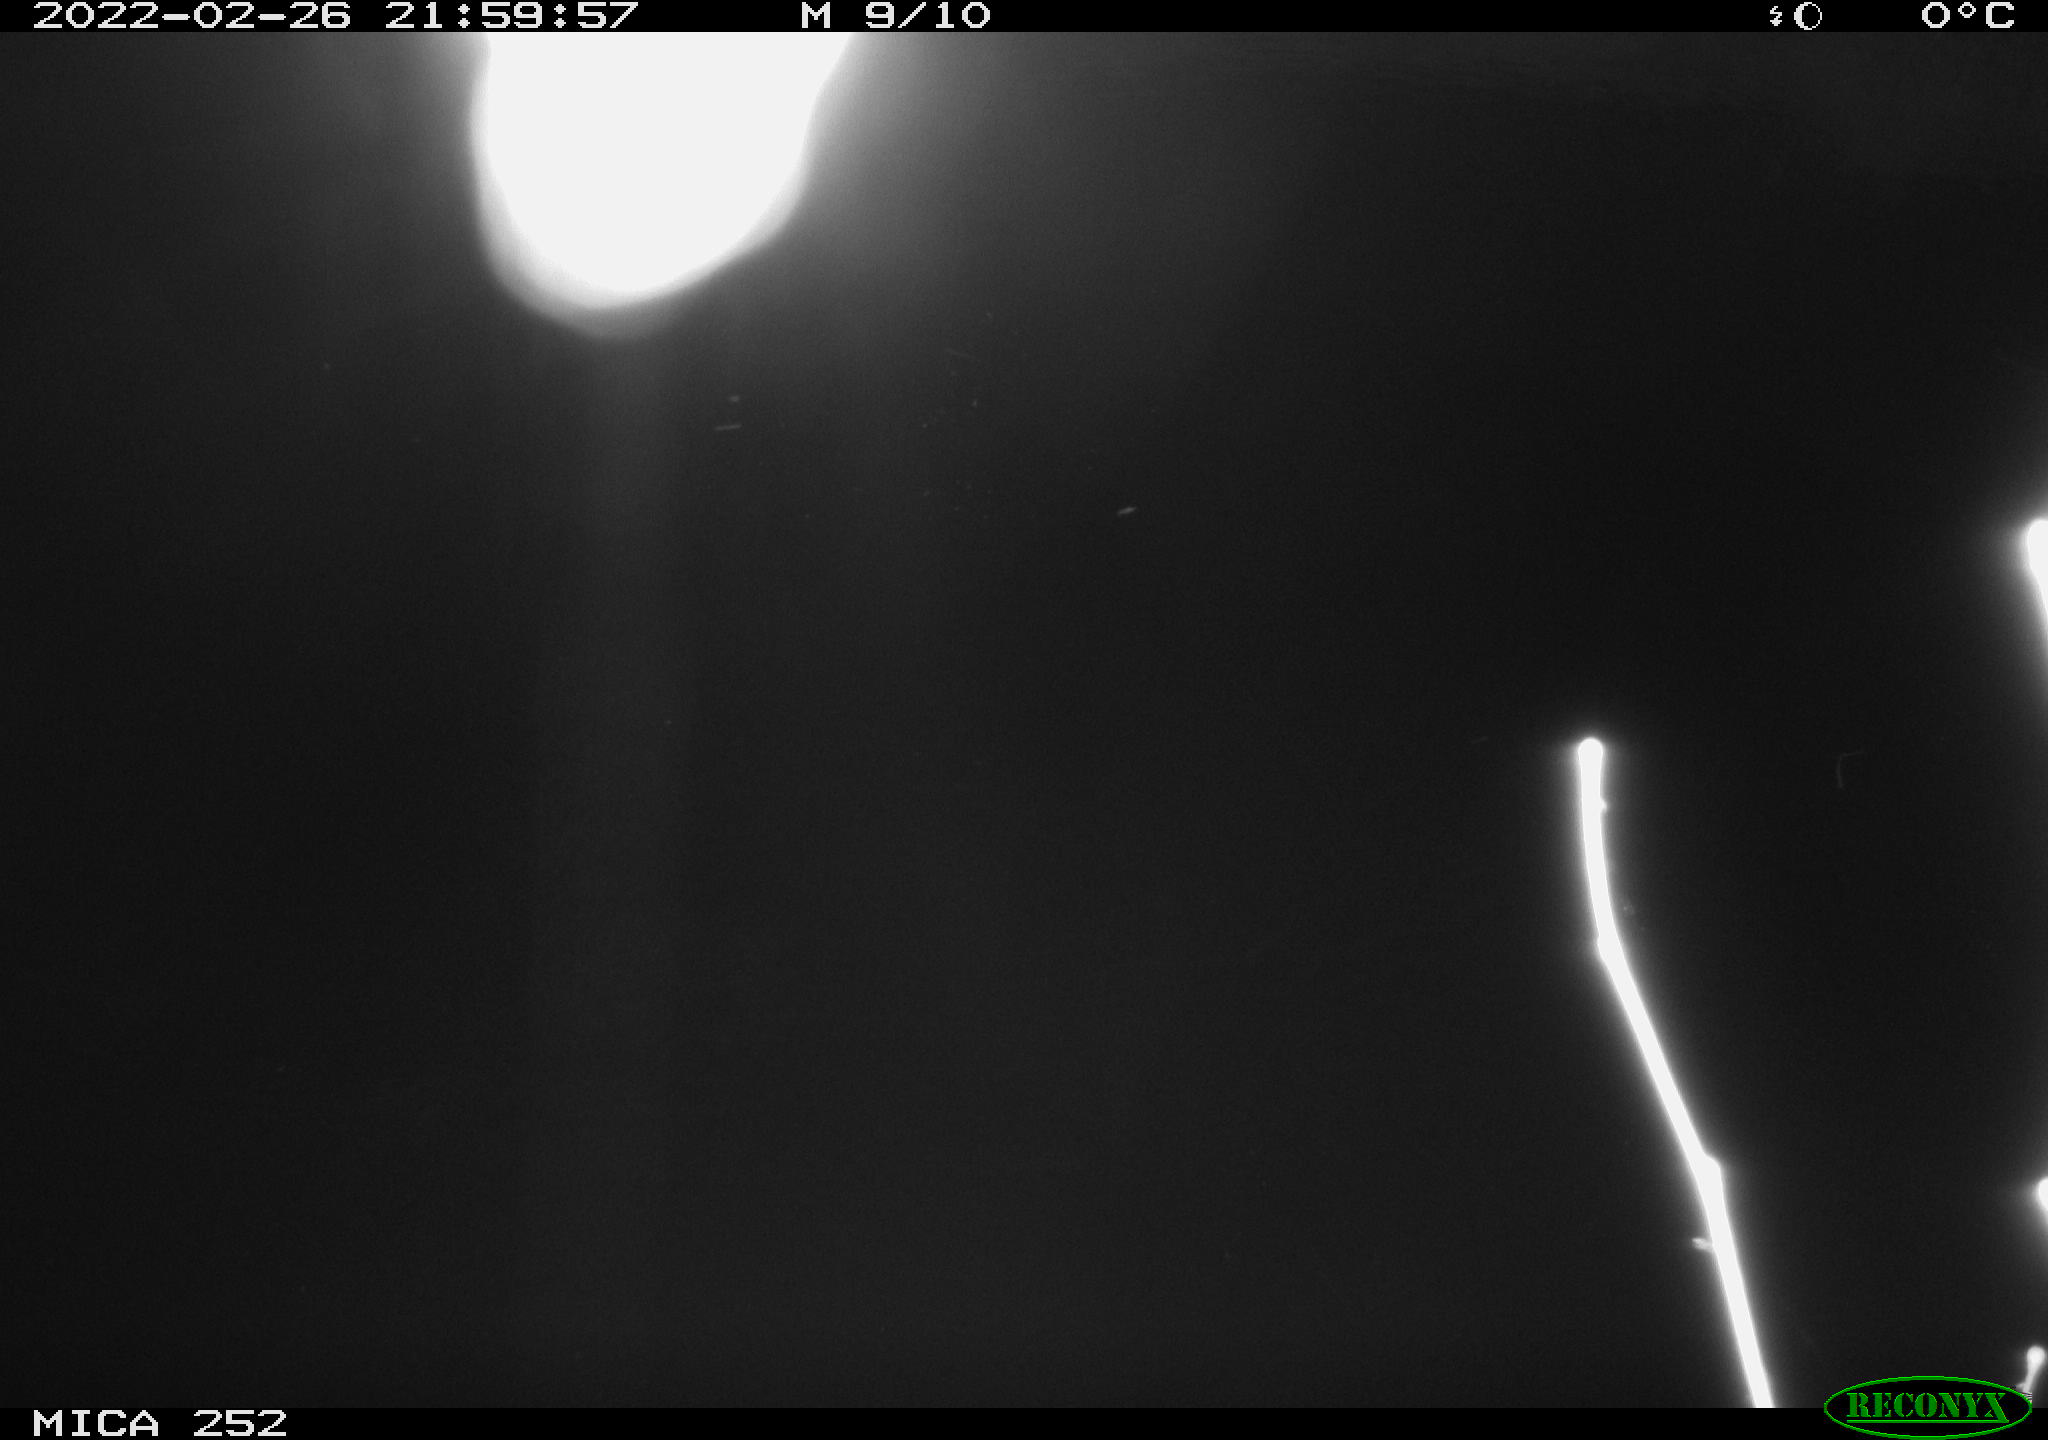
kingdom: Animalia
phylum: Chordata
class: Mammalia
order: Rodentia
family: Castoridae
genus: Castor
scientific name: Castor fiber
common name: Eurasian beaver
